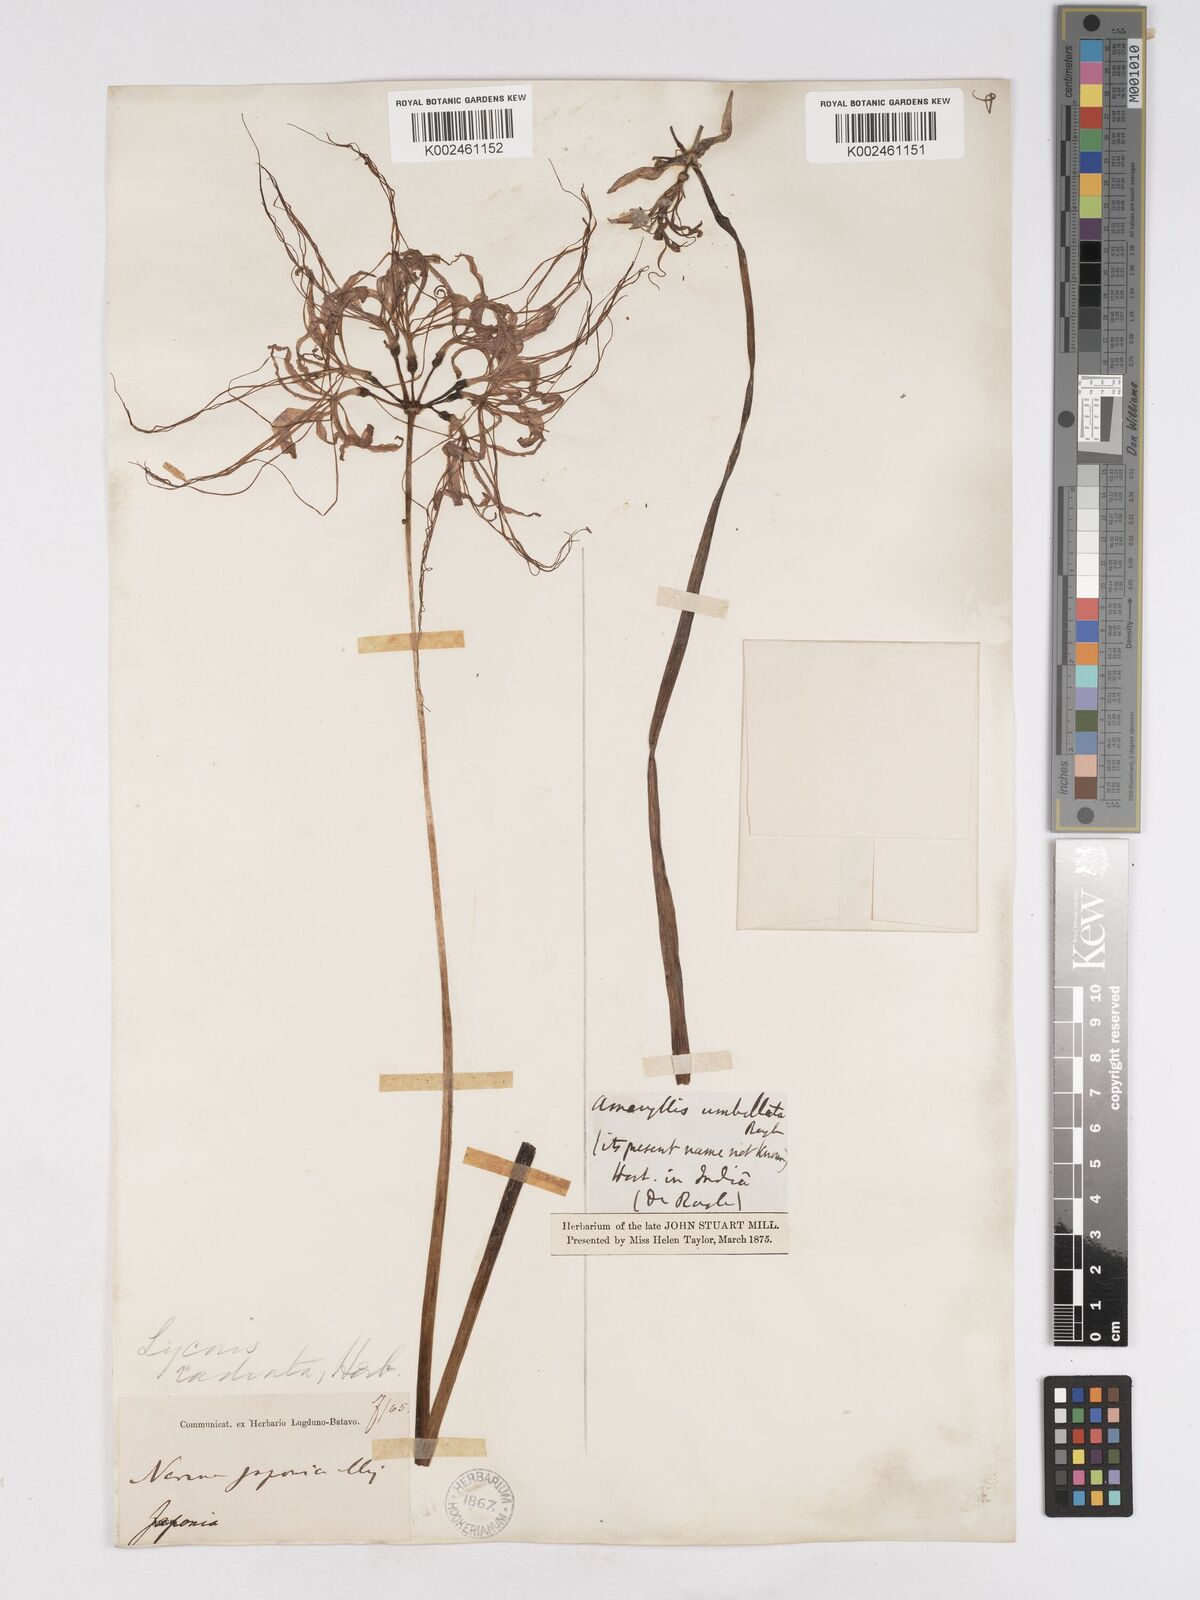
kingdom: Plantae
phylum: Tracheophyta
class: Liliopsida
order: Asparagales
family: Amaryllidaceae
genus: Lycoris
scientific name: Lycoris radiata
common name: Red spider lily
